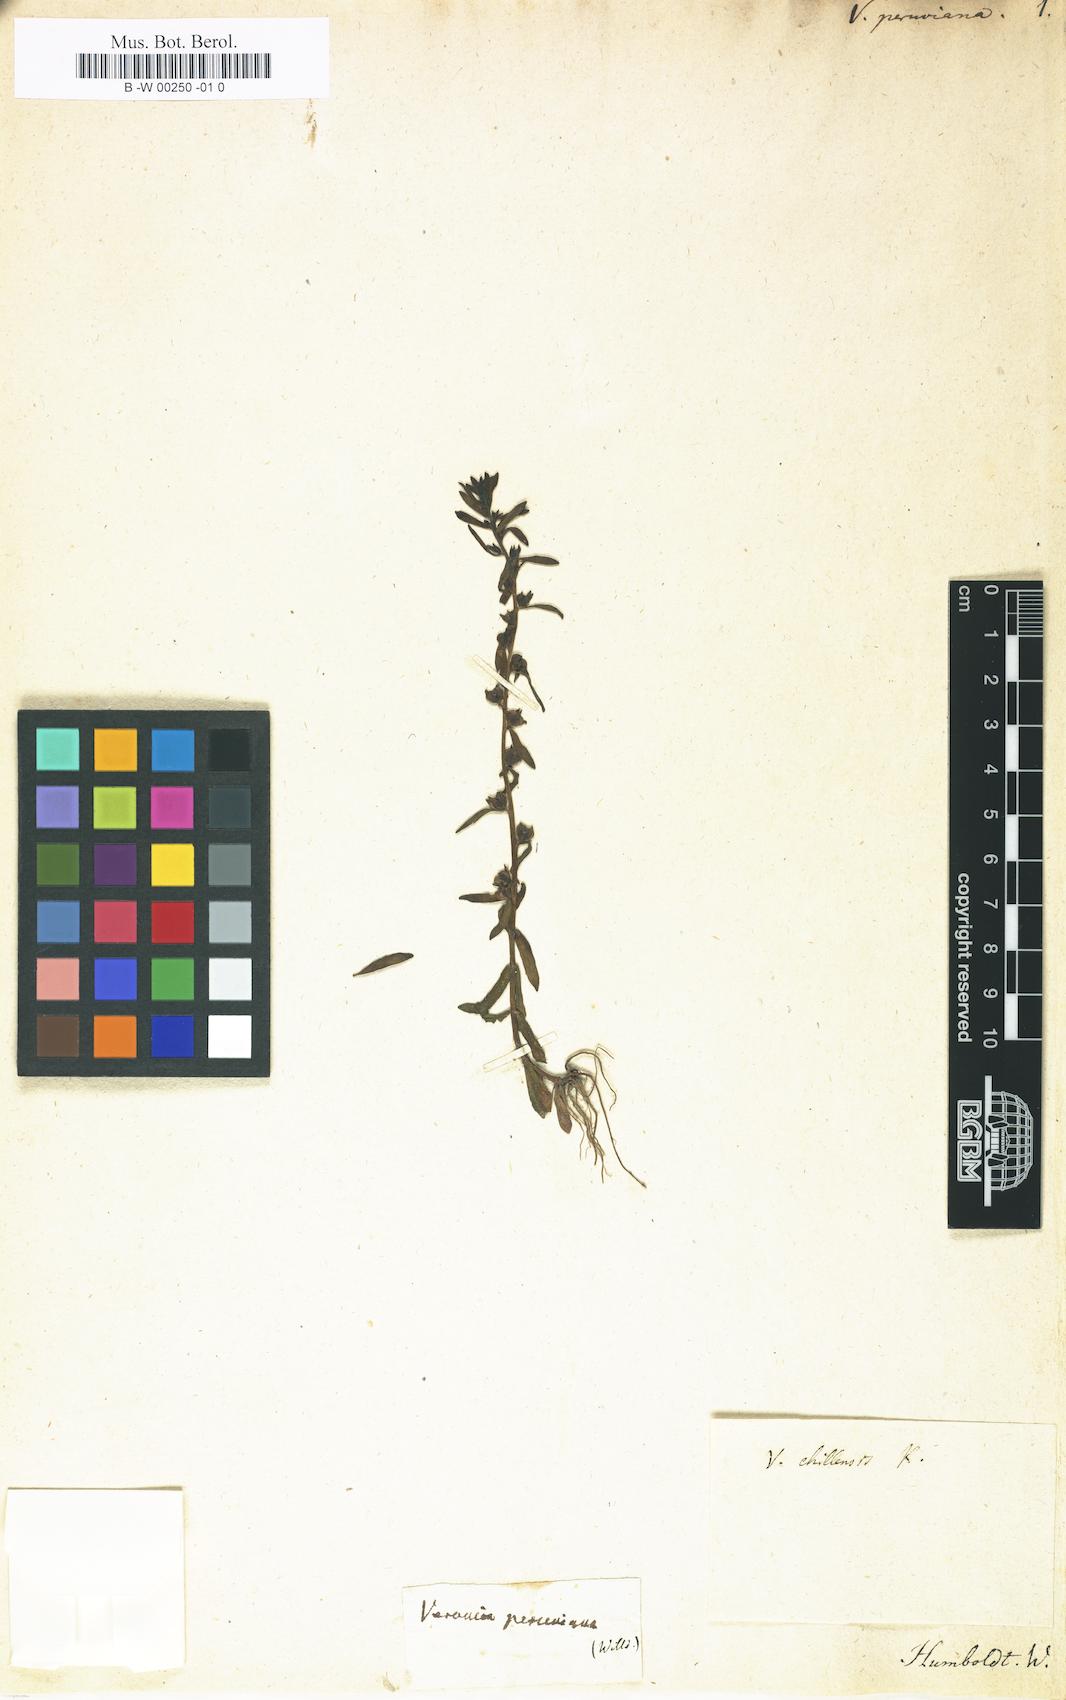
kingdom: Plantae
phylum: Tracheophyta
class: Magnoliopsida
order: Lamiales
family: Plantaginaceae
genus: Veronica
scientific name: Veronica peregrina
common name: Neckweed
